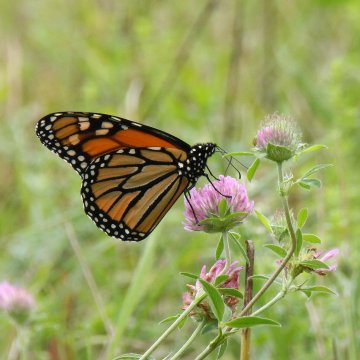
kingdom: Animalia
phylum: Arthropoda
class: Insecta
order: Lepidoptera
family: Nymphalidae
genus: Danaus
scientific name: Danaus plexippus
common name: Monarch
